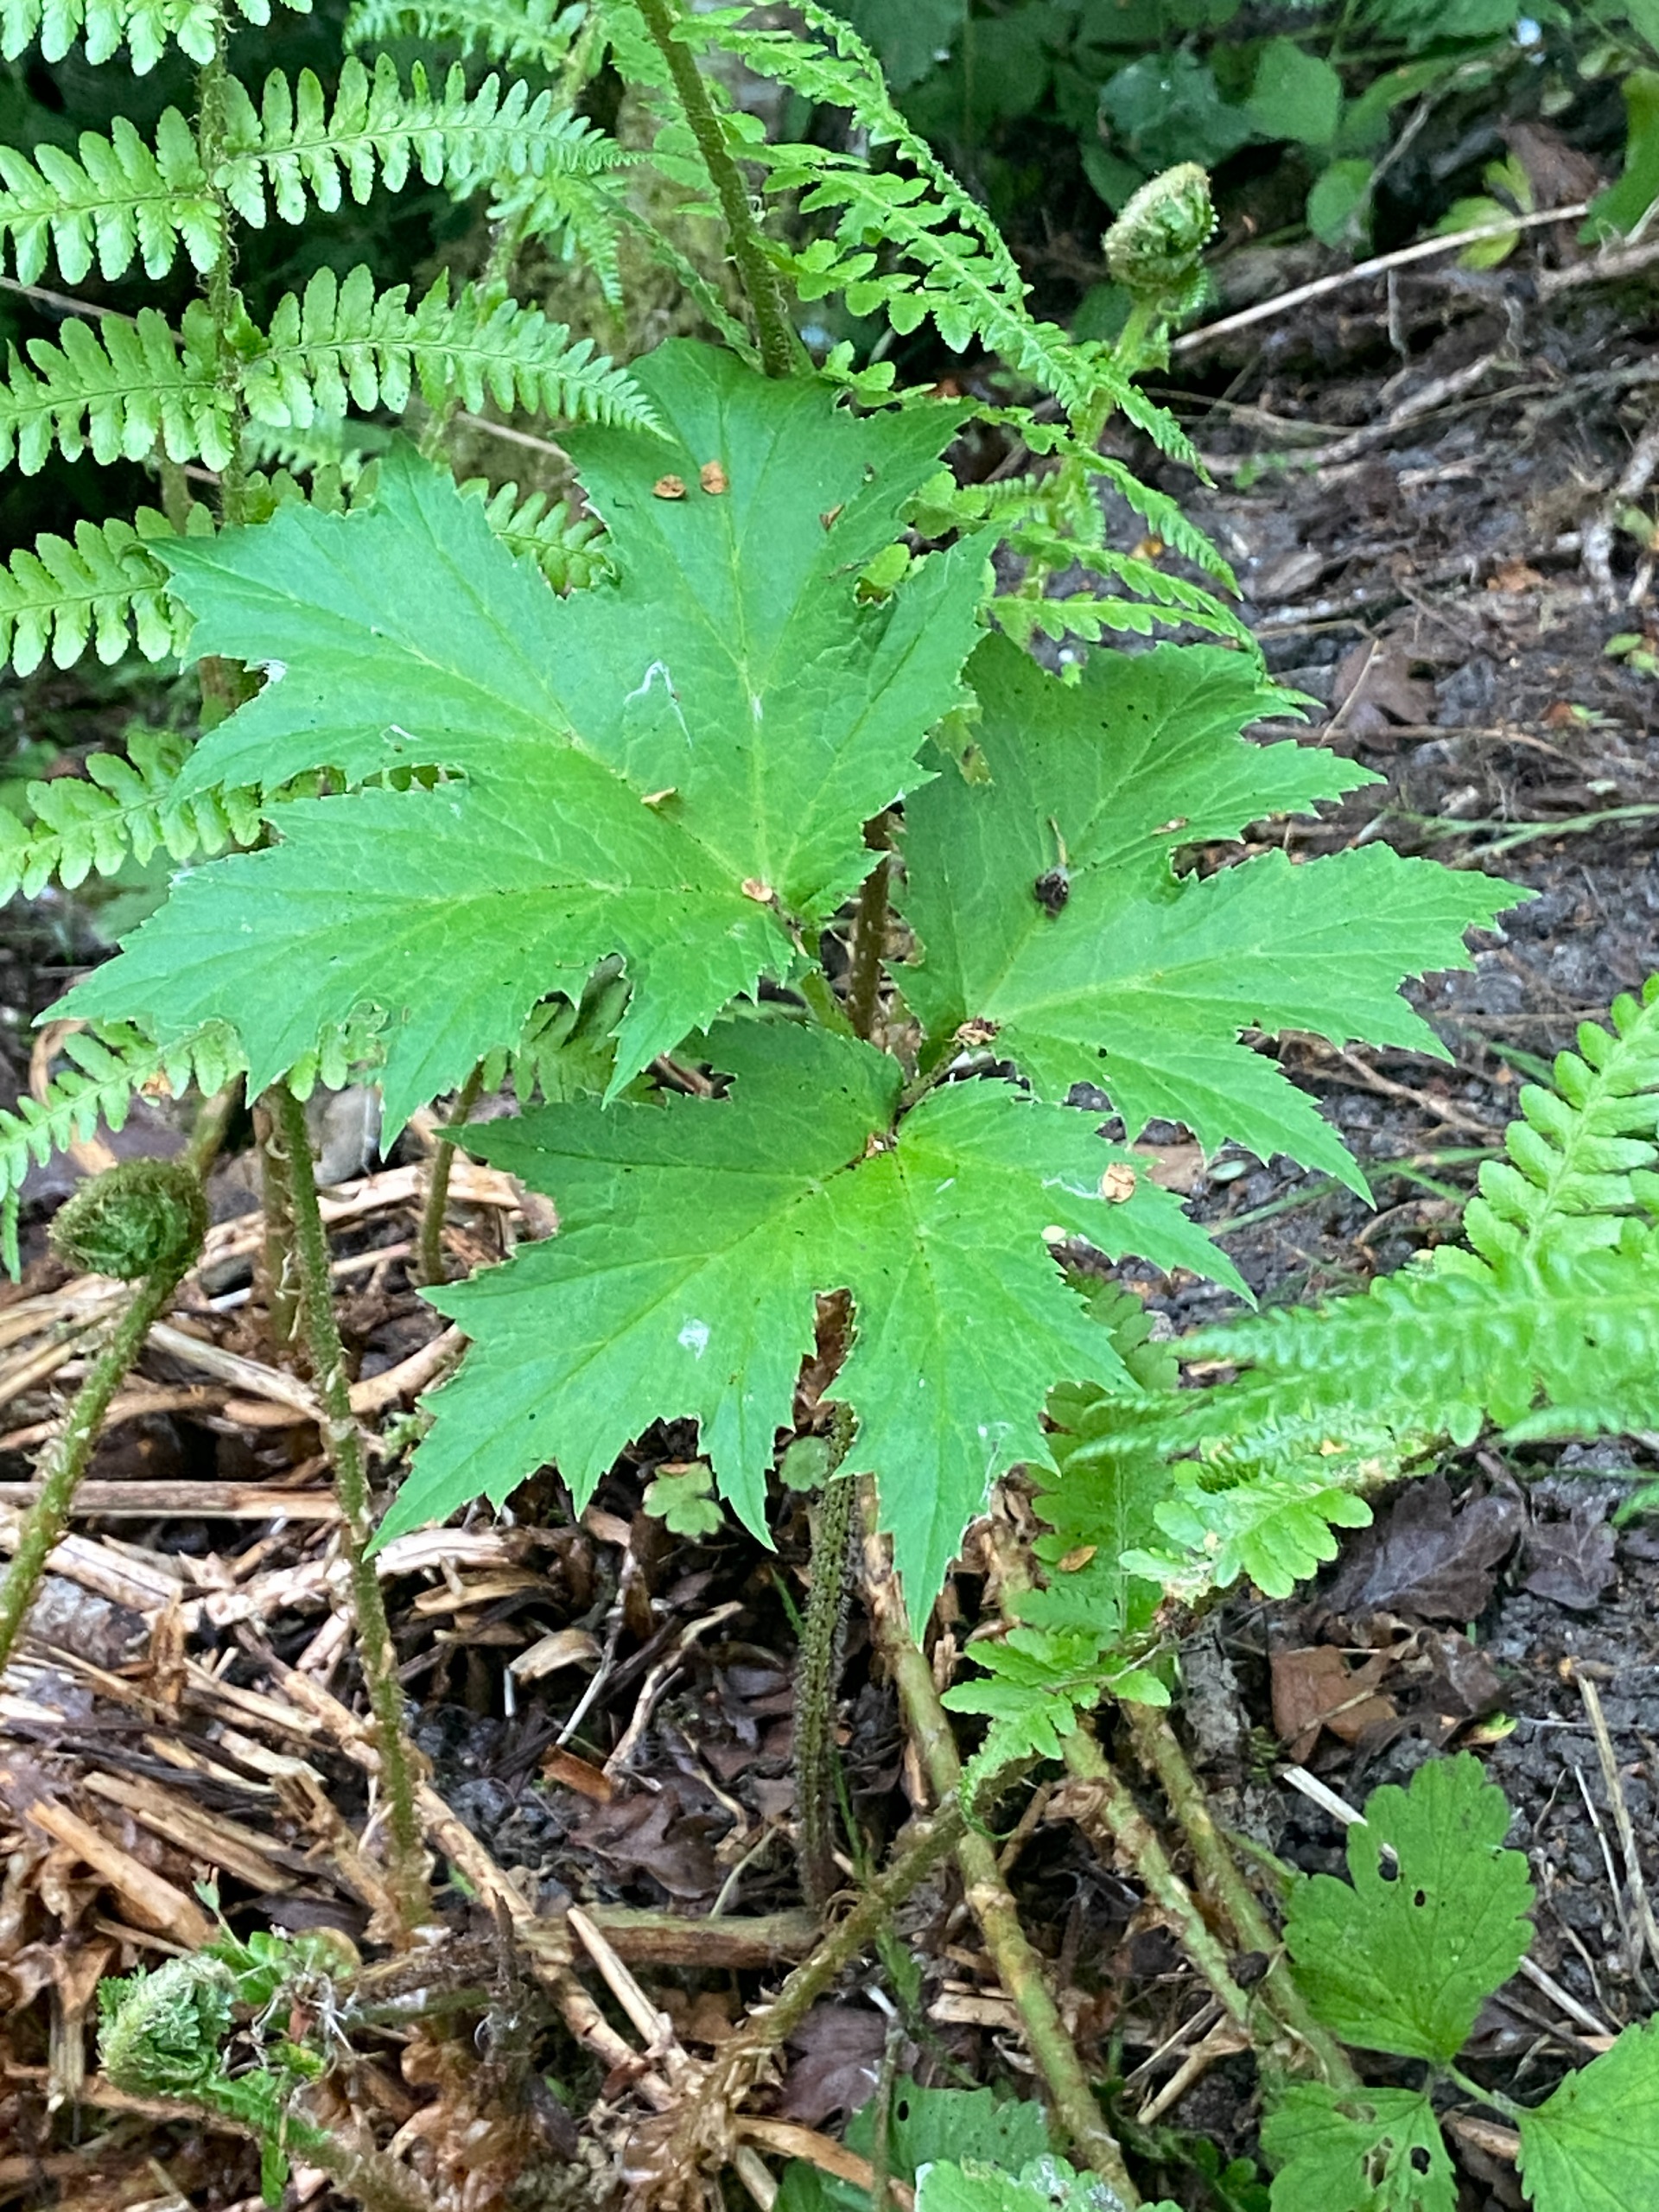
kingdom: Plantae
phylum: Tracheophyta
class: Magnoliopsida
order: Apiales
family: Apiaceae
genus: Heracleum
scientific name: Heracleum mantegazzianum
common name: Kæmpe-bjørneklo
